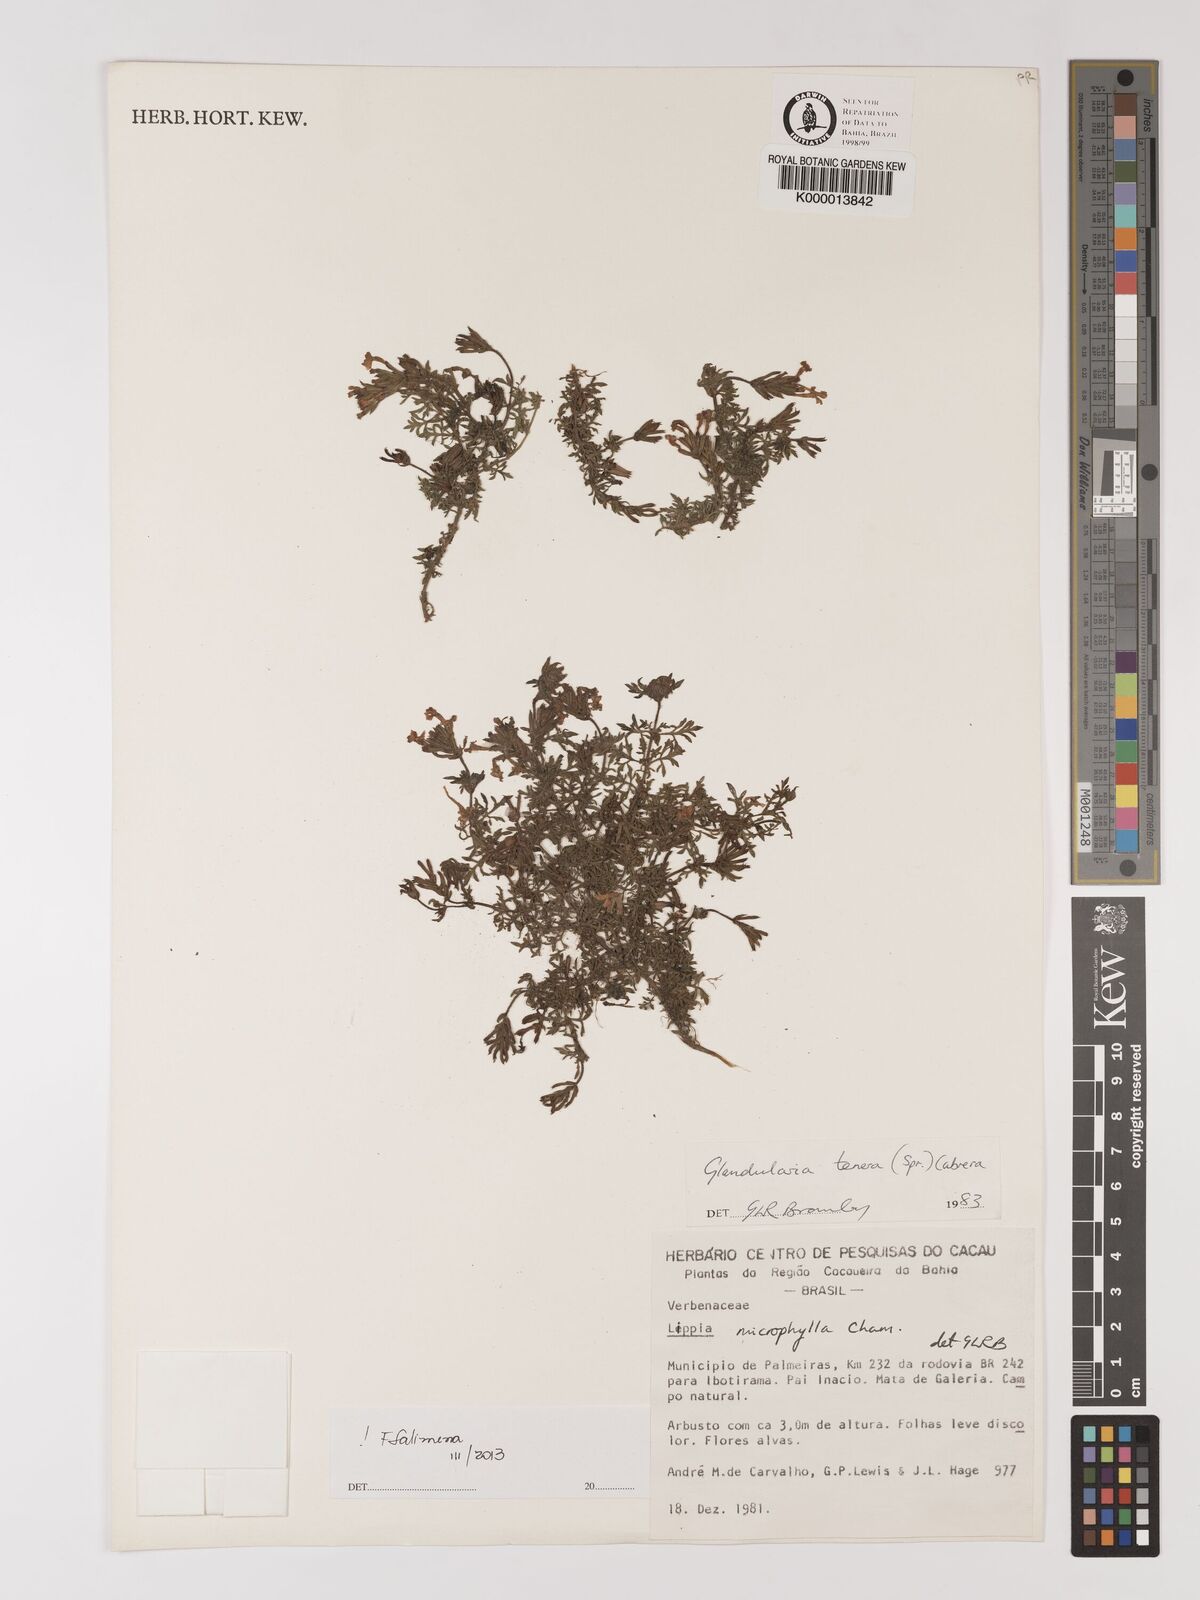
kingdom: Plantae
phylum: Tracheophyta
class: Magnoliopsida
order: Lamiales
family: Verbenaceae
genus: Verbena
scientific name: Verbena tenera
